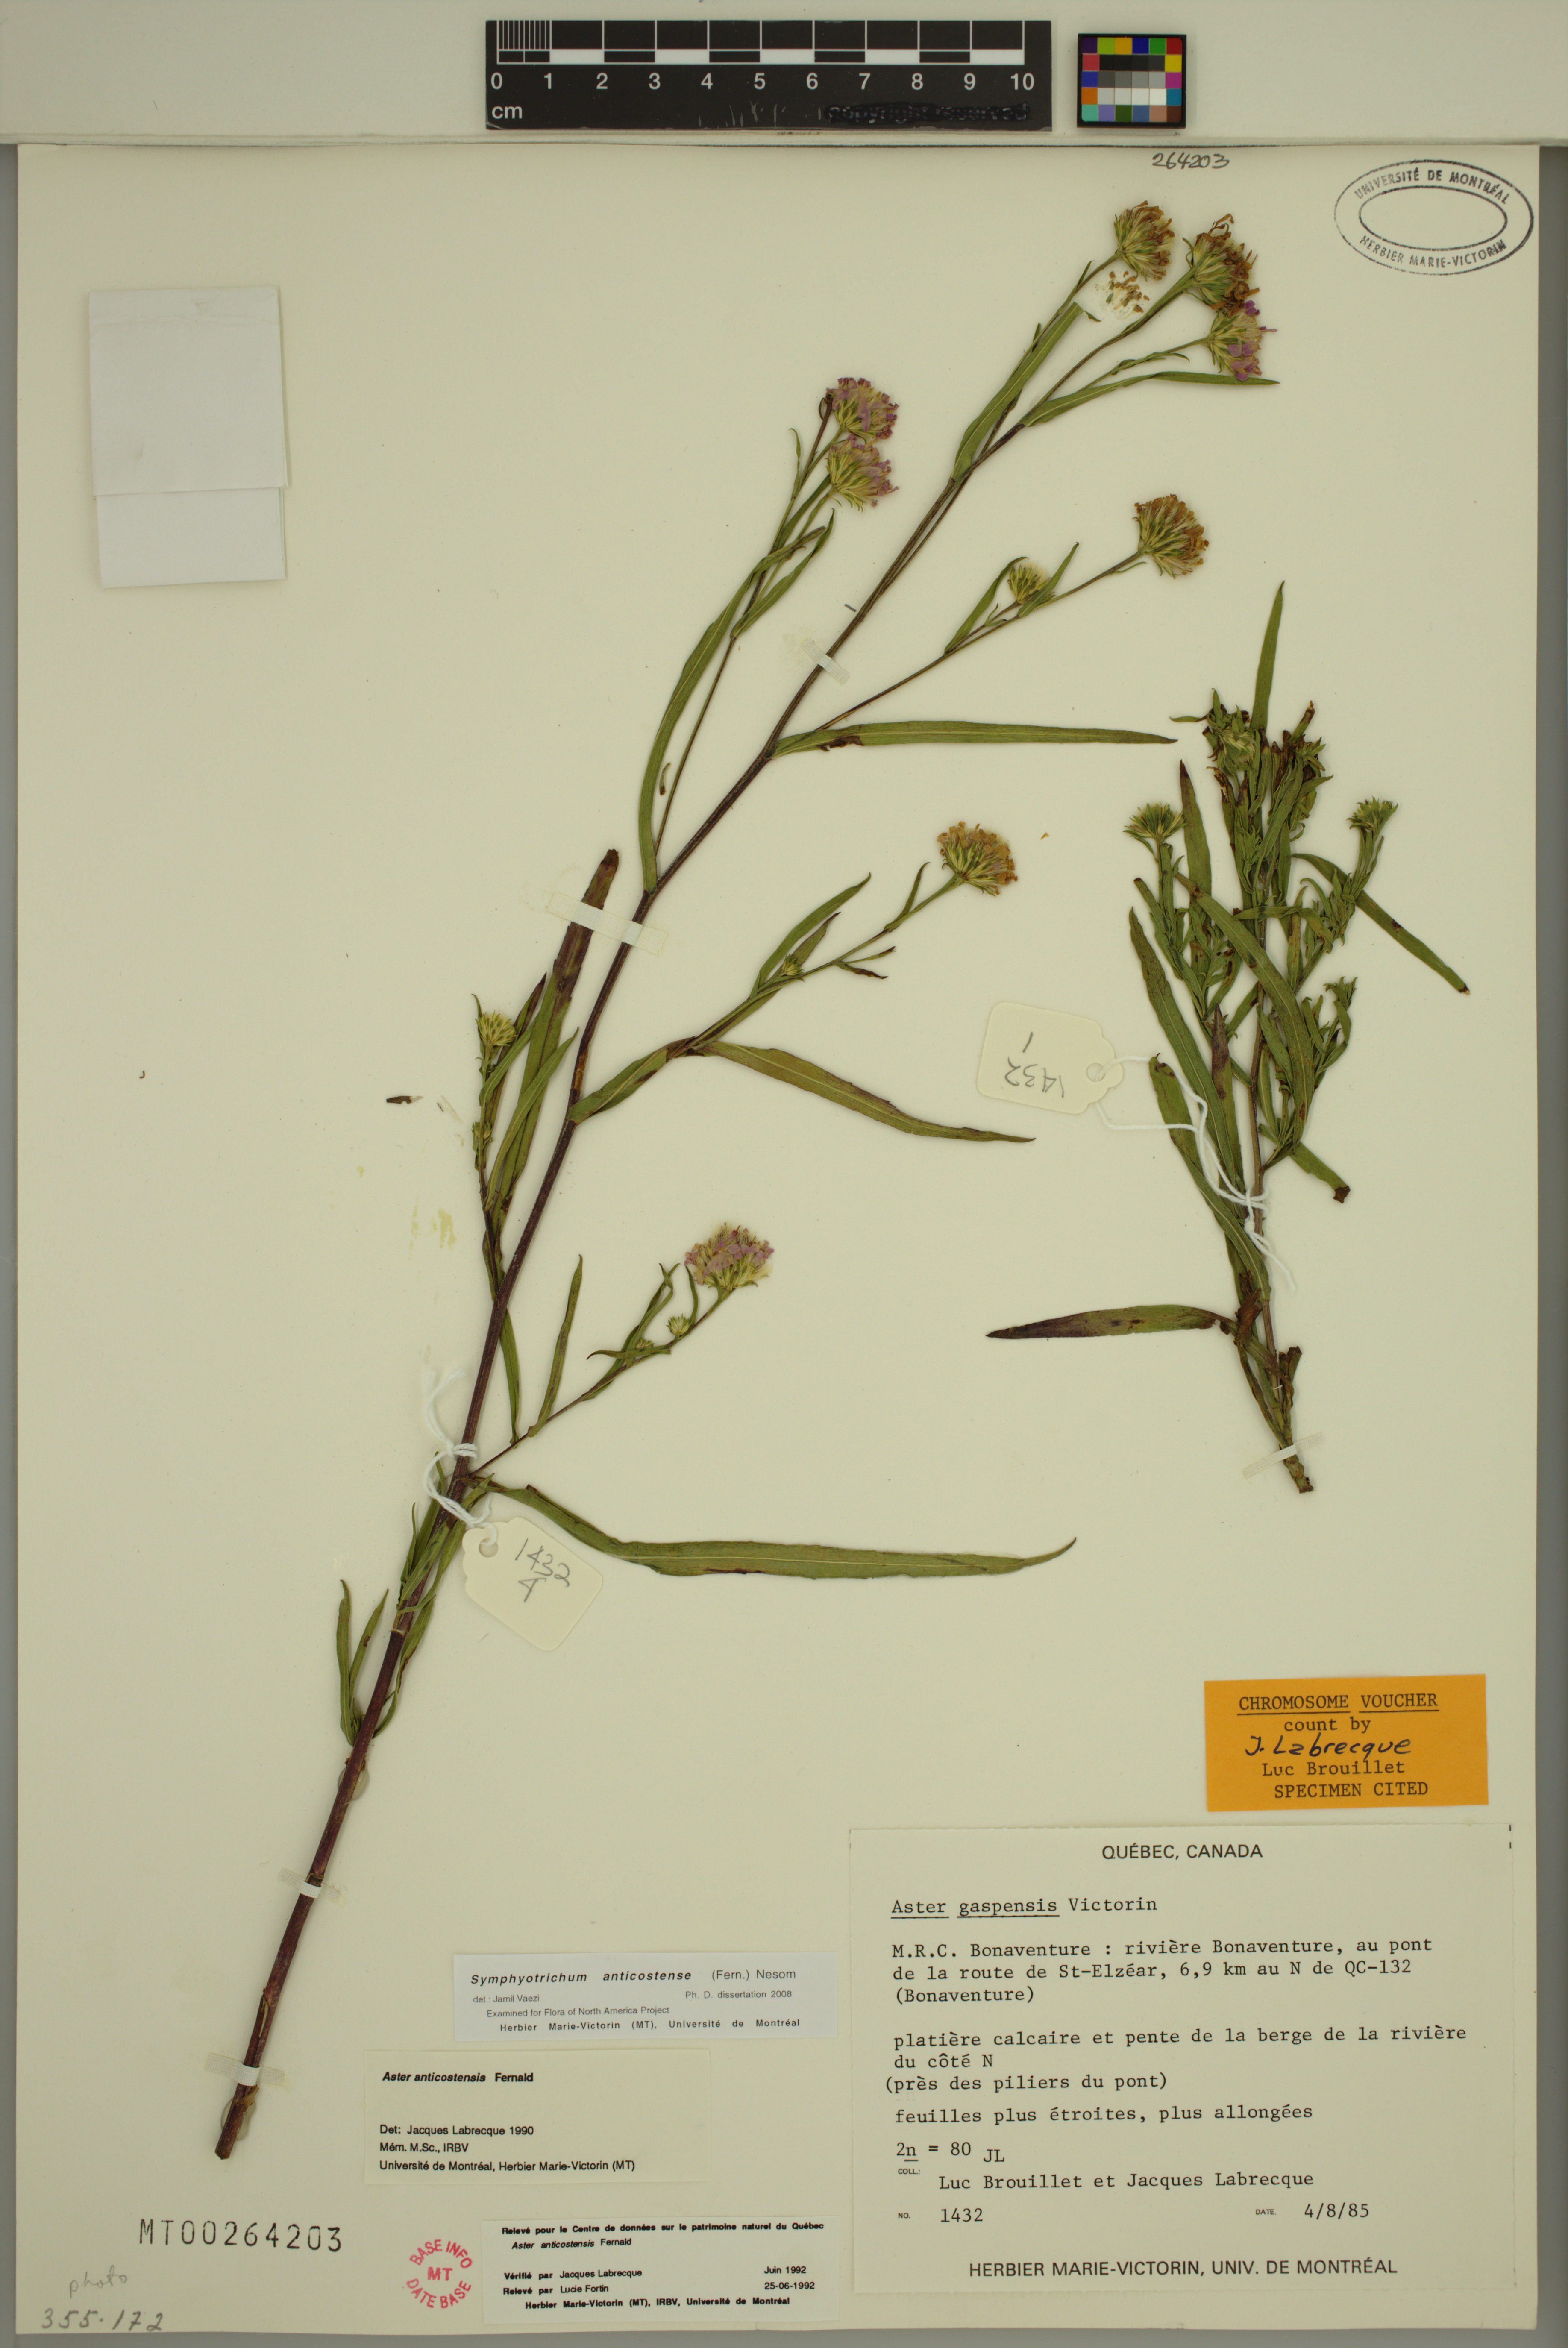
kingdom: Plantae
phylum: Tracheophyta
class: Magnoliopsida
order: Asterales
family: Asteraceae
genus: Symphyotrichum
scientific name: Symphyotrichum anticostense
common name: Anticosti island aster
